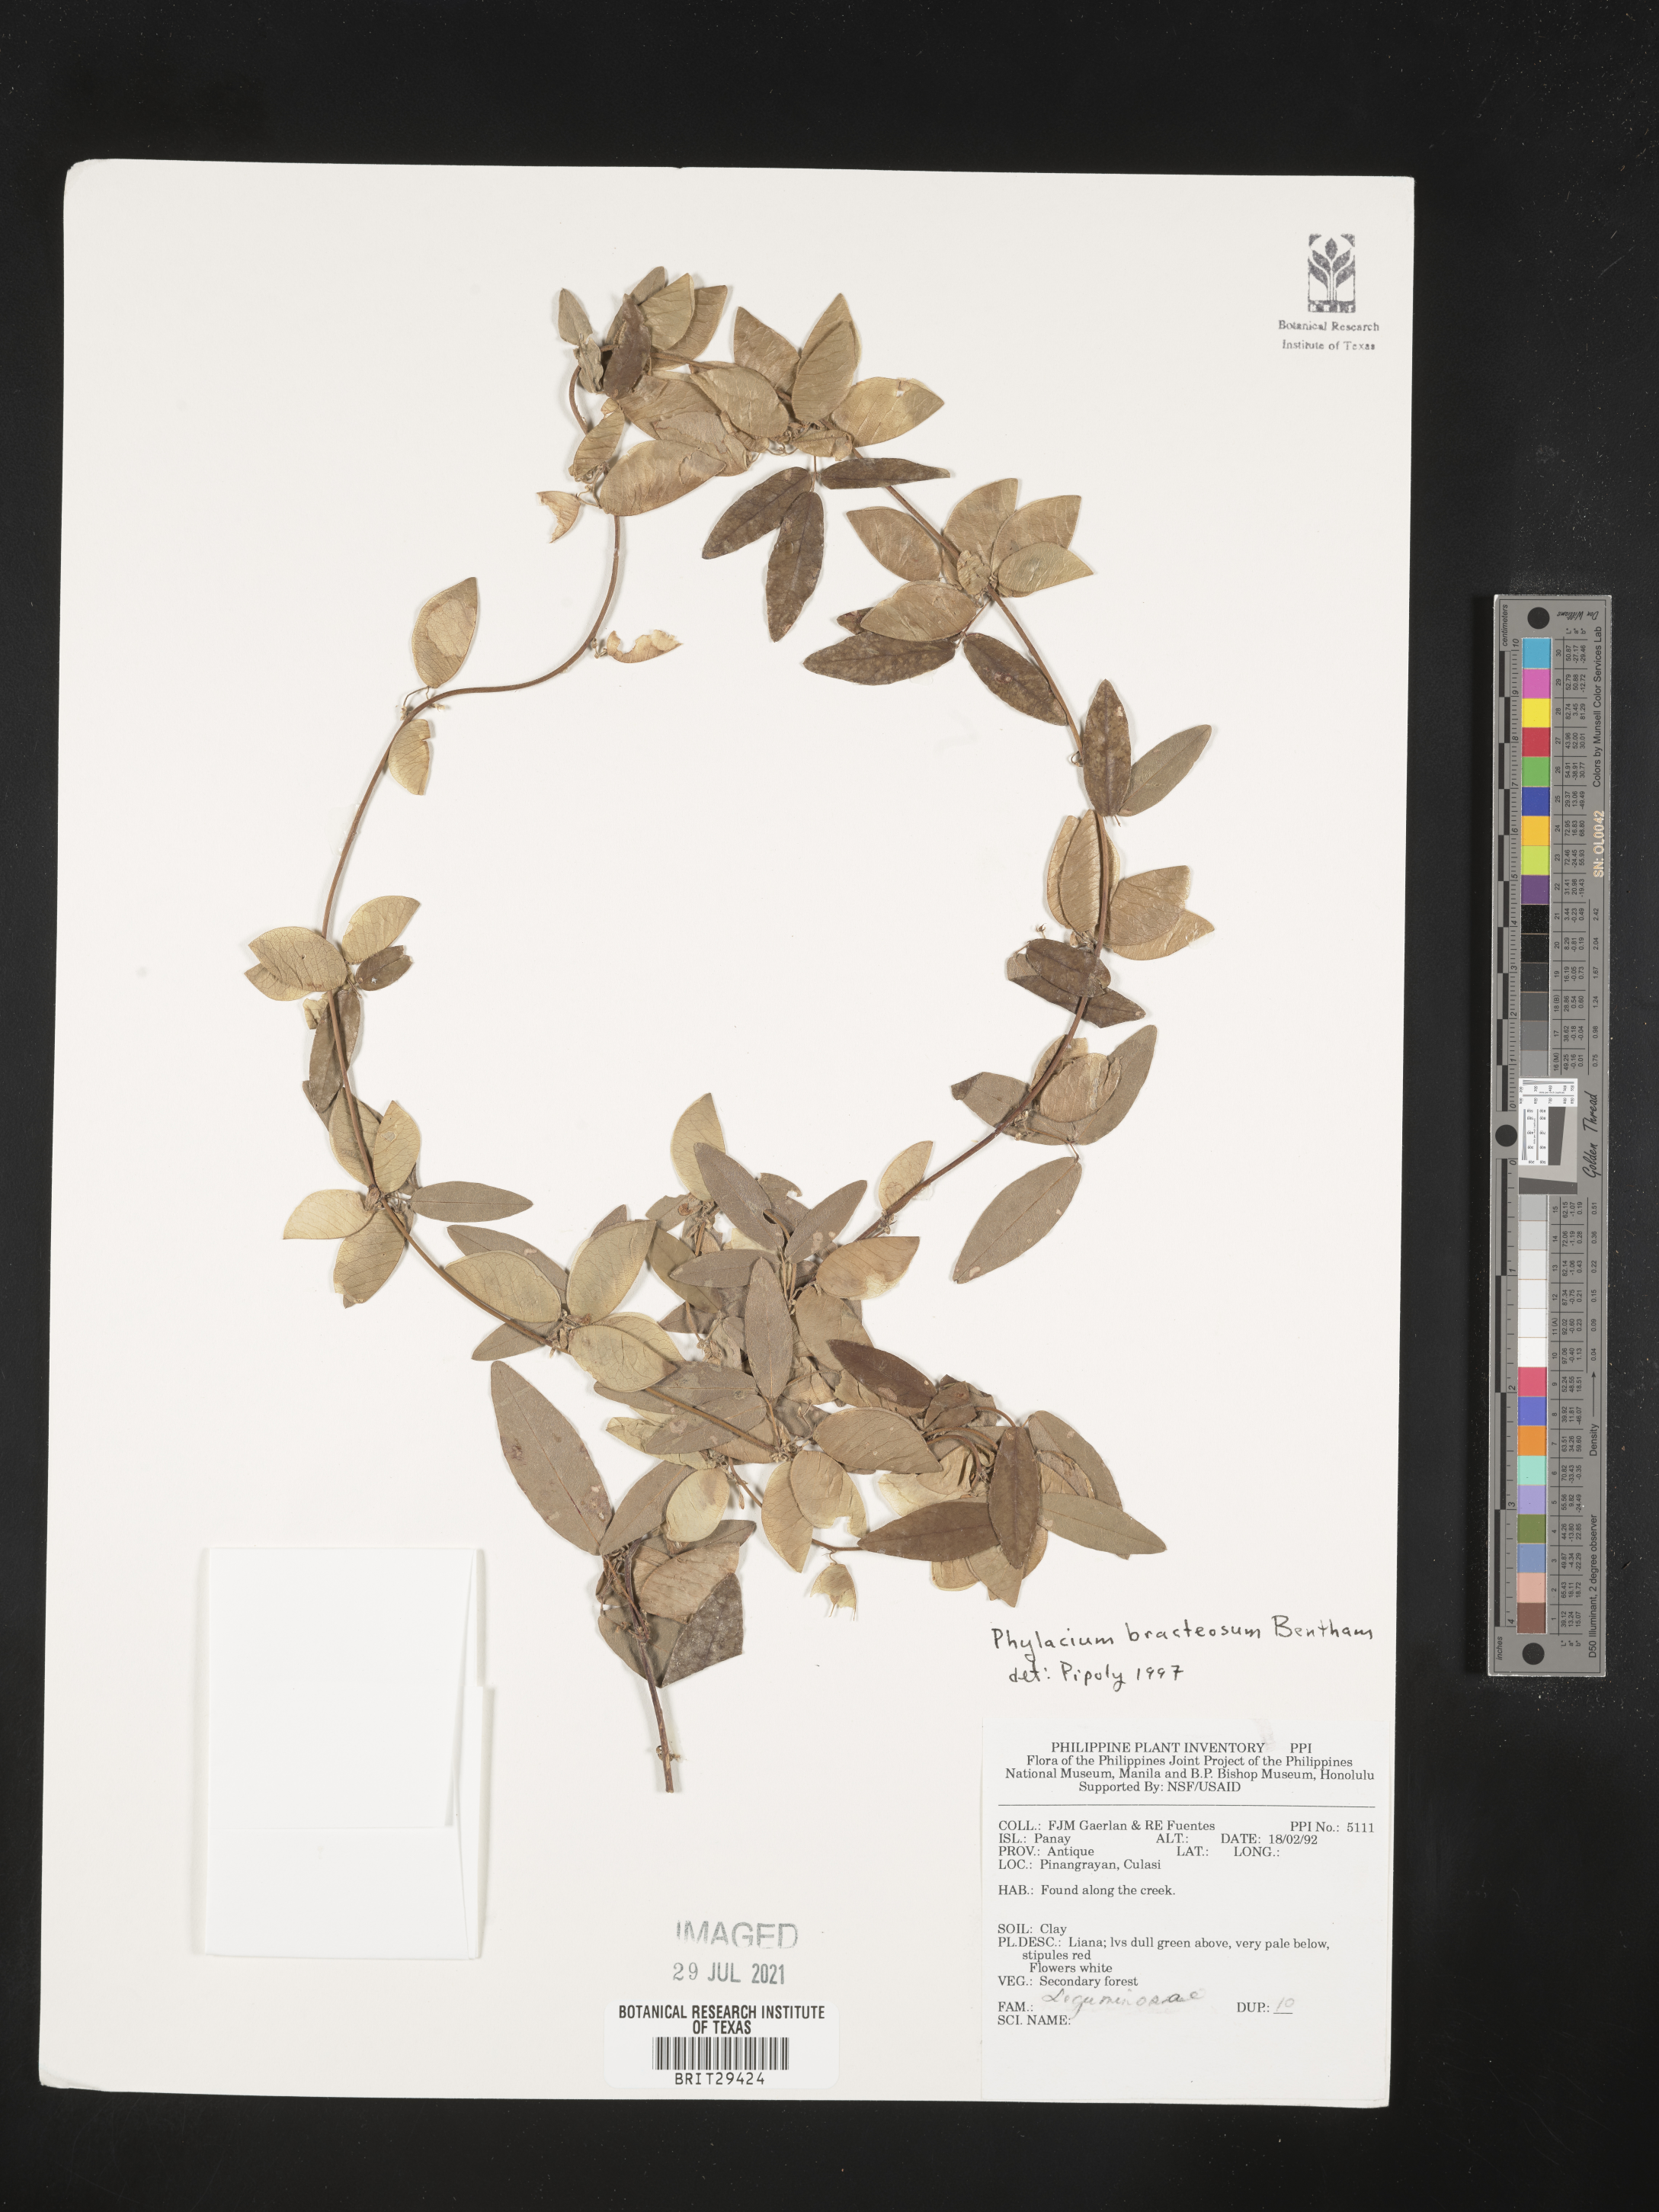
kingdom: Plantae
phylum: Tracheophyta
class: Magnoliopsida
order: Fabales
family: Fabaceae
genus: Phylacium
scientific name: Phylacium bracteosum
